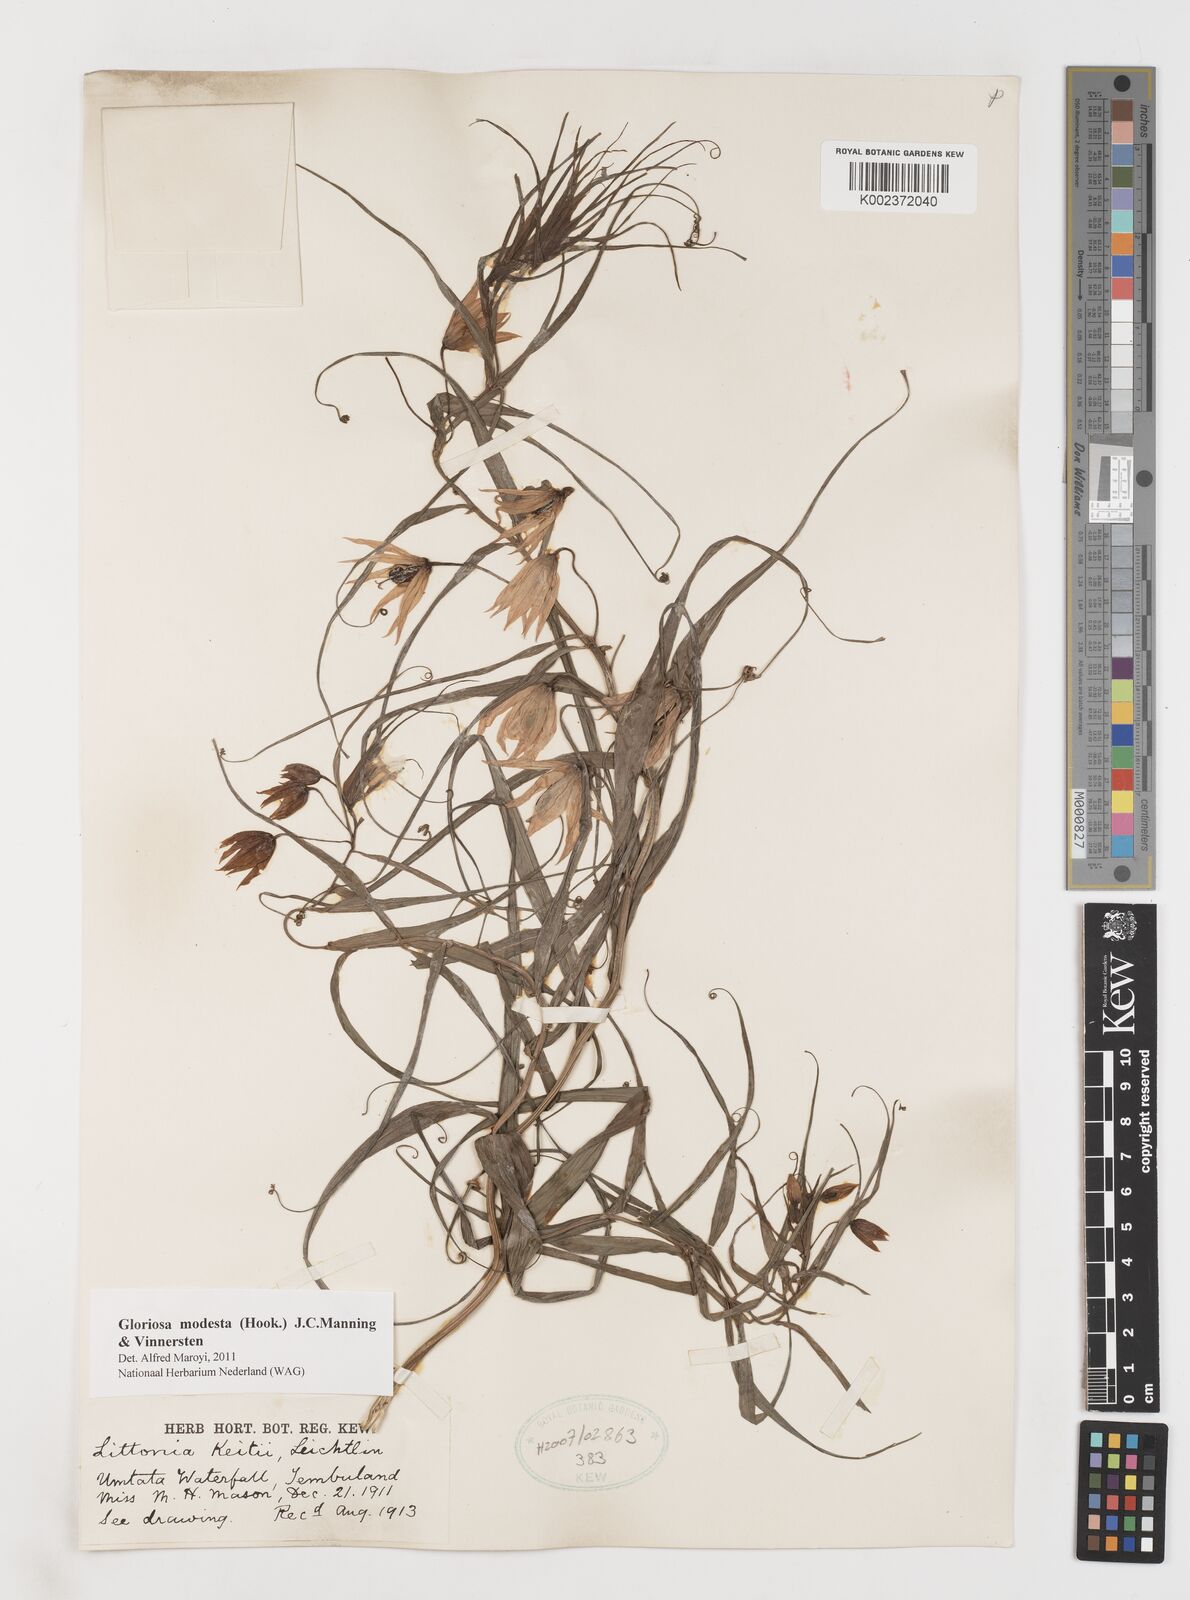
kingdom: Plantae
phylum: Tracheophyta
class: Liliopsida
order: Liliales
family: Colchicaceae
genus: Gloriosa
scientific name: Gloriosa modesta
